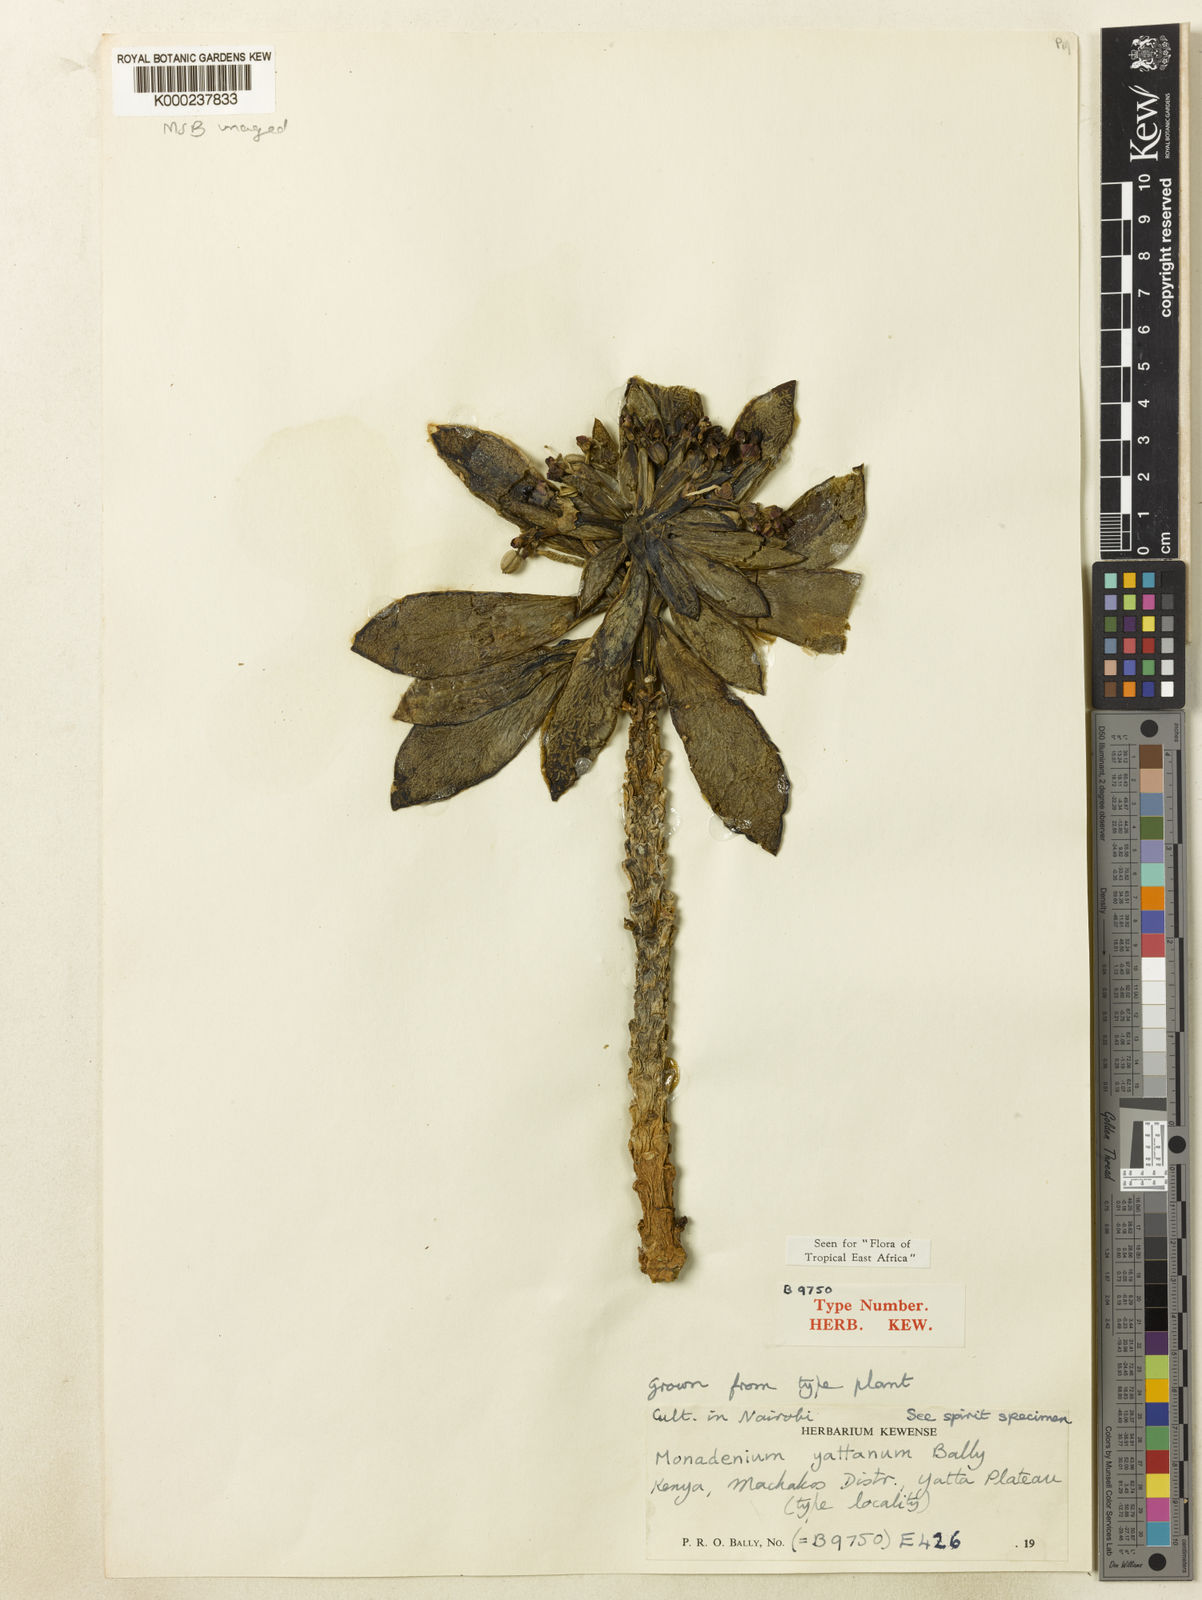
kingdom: Plantae
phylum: Tracheophyta
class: Magnoliopsida
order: Malpighiales
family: Euphorbiaceae
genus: Euphorbia
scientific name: Euphorbia yattana
